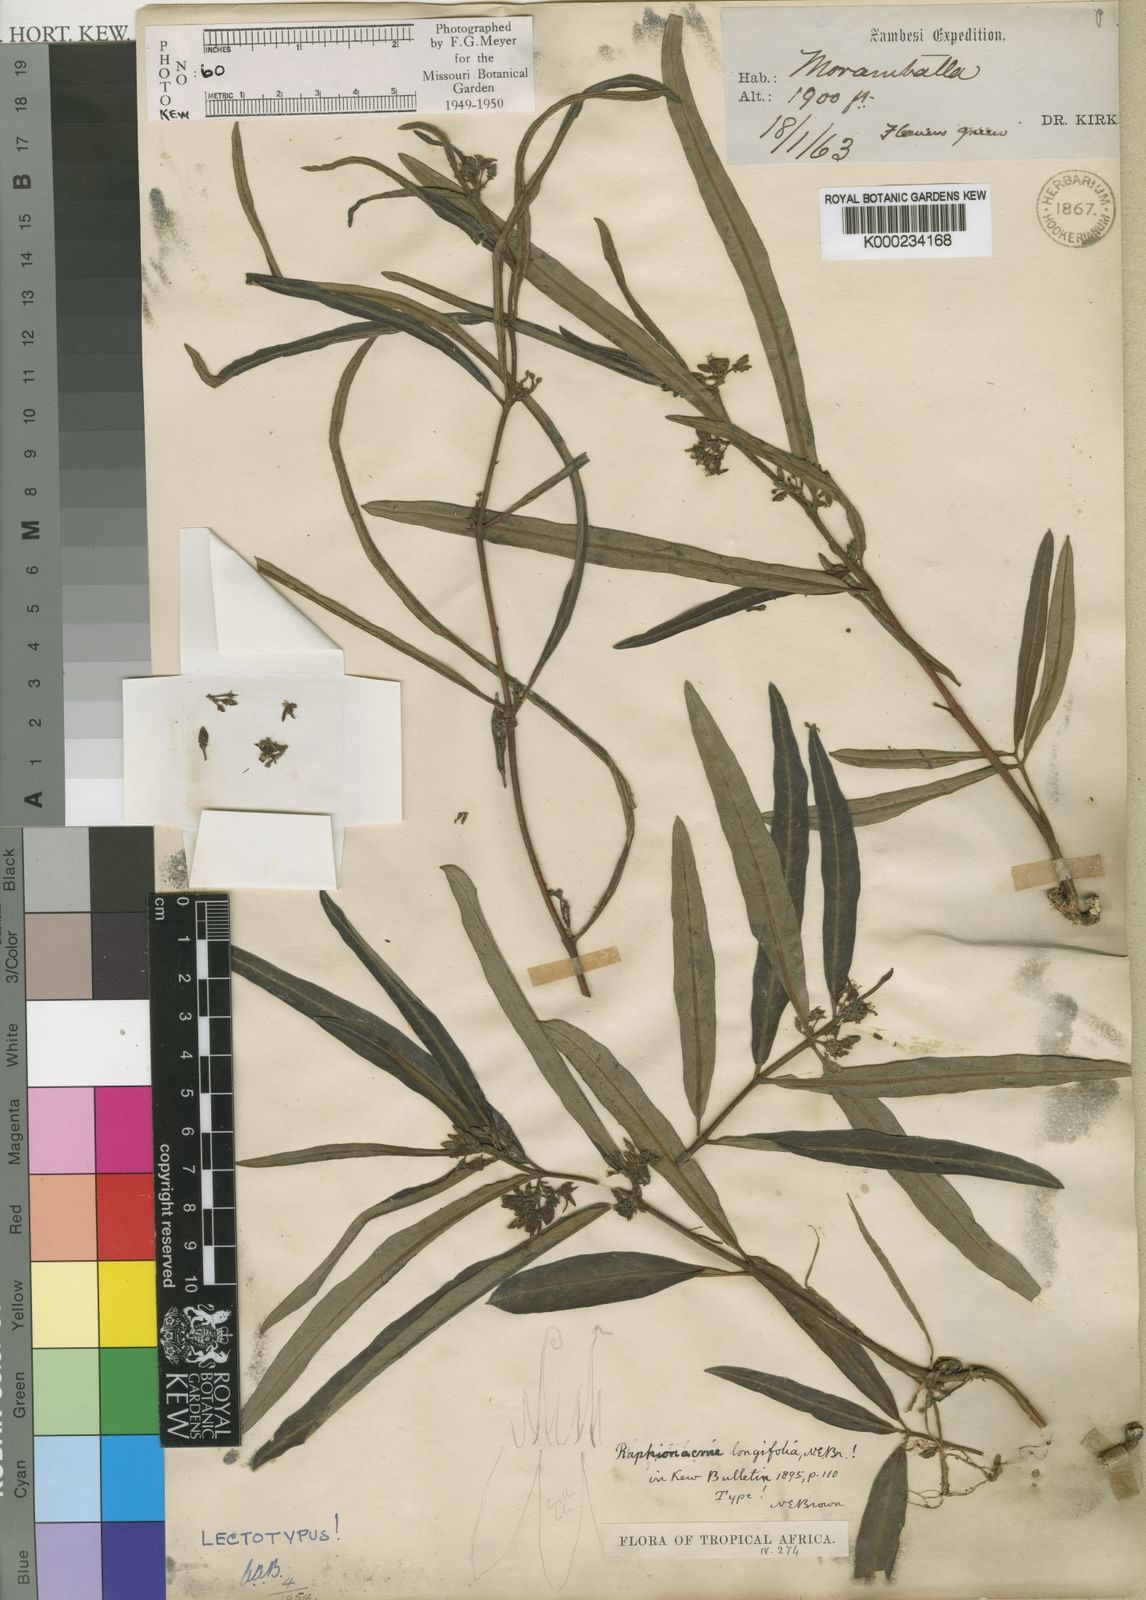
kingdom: Plantae
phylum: Tracheophyta
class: Magnoliopsida
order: Gentianales
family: Apocynaceae
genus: Raphionacme
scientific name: Raphionacme longifolia
